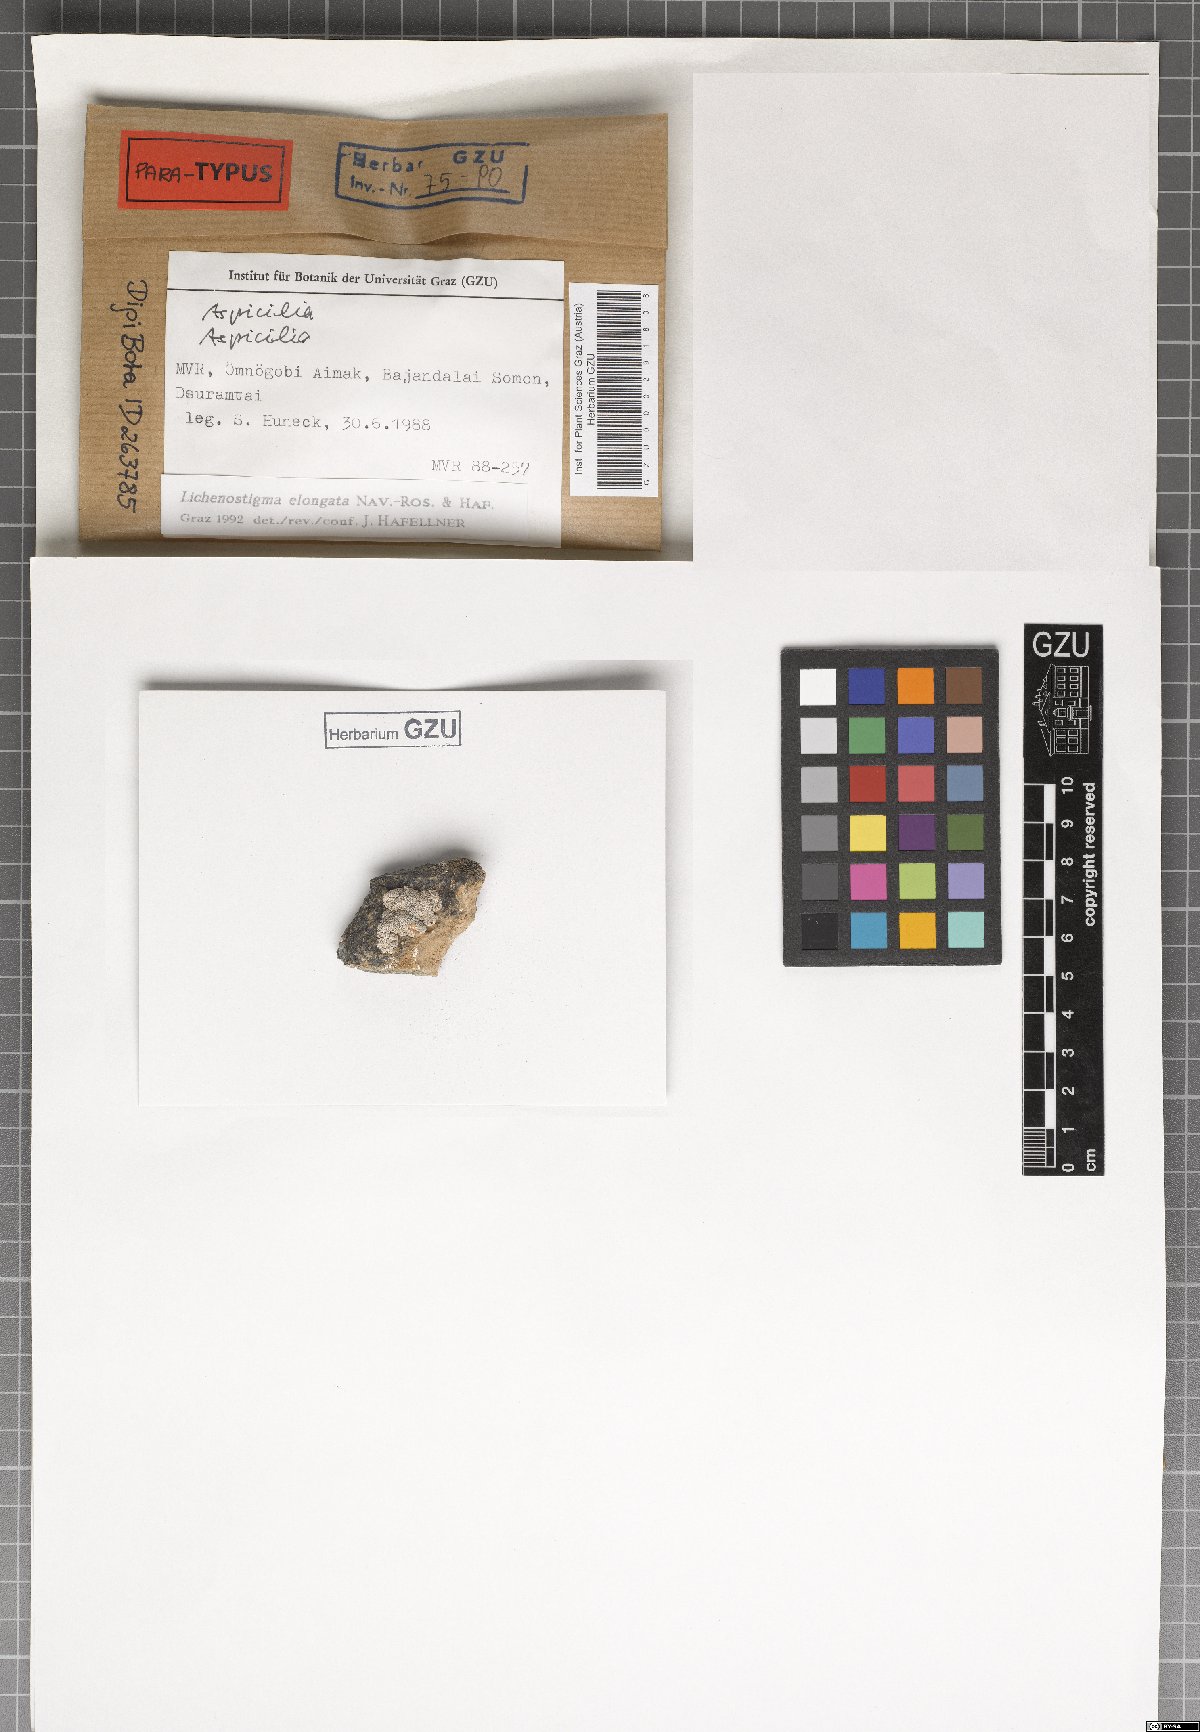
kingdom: Fungi
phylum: Ascomycota
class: Arthoniomycetes
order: Lichenostigmatales
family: Phaeococcomycetaceae
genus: Lichenostigma
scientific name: Lichenostigma elongatum
